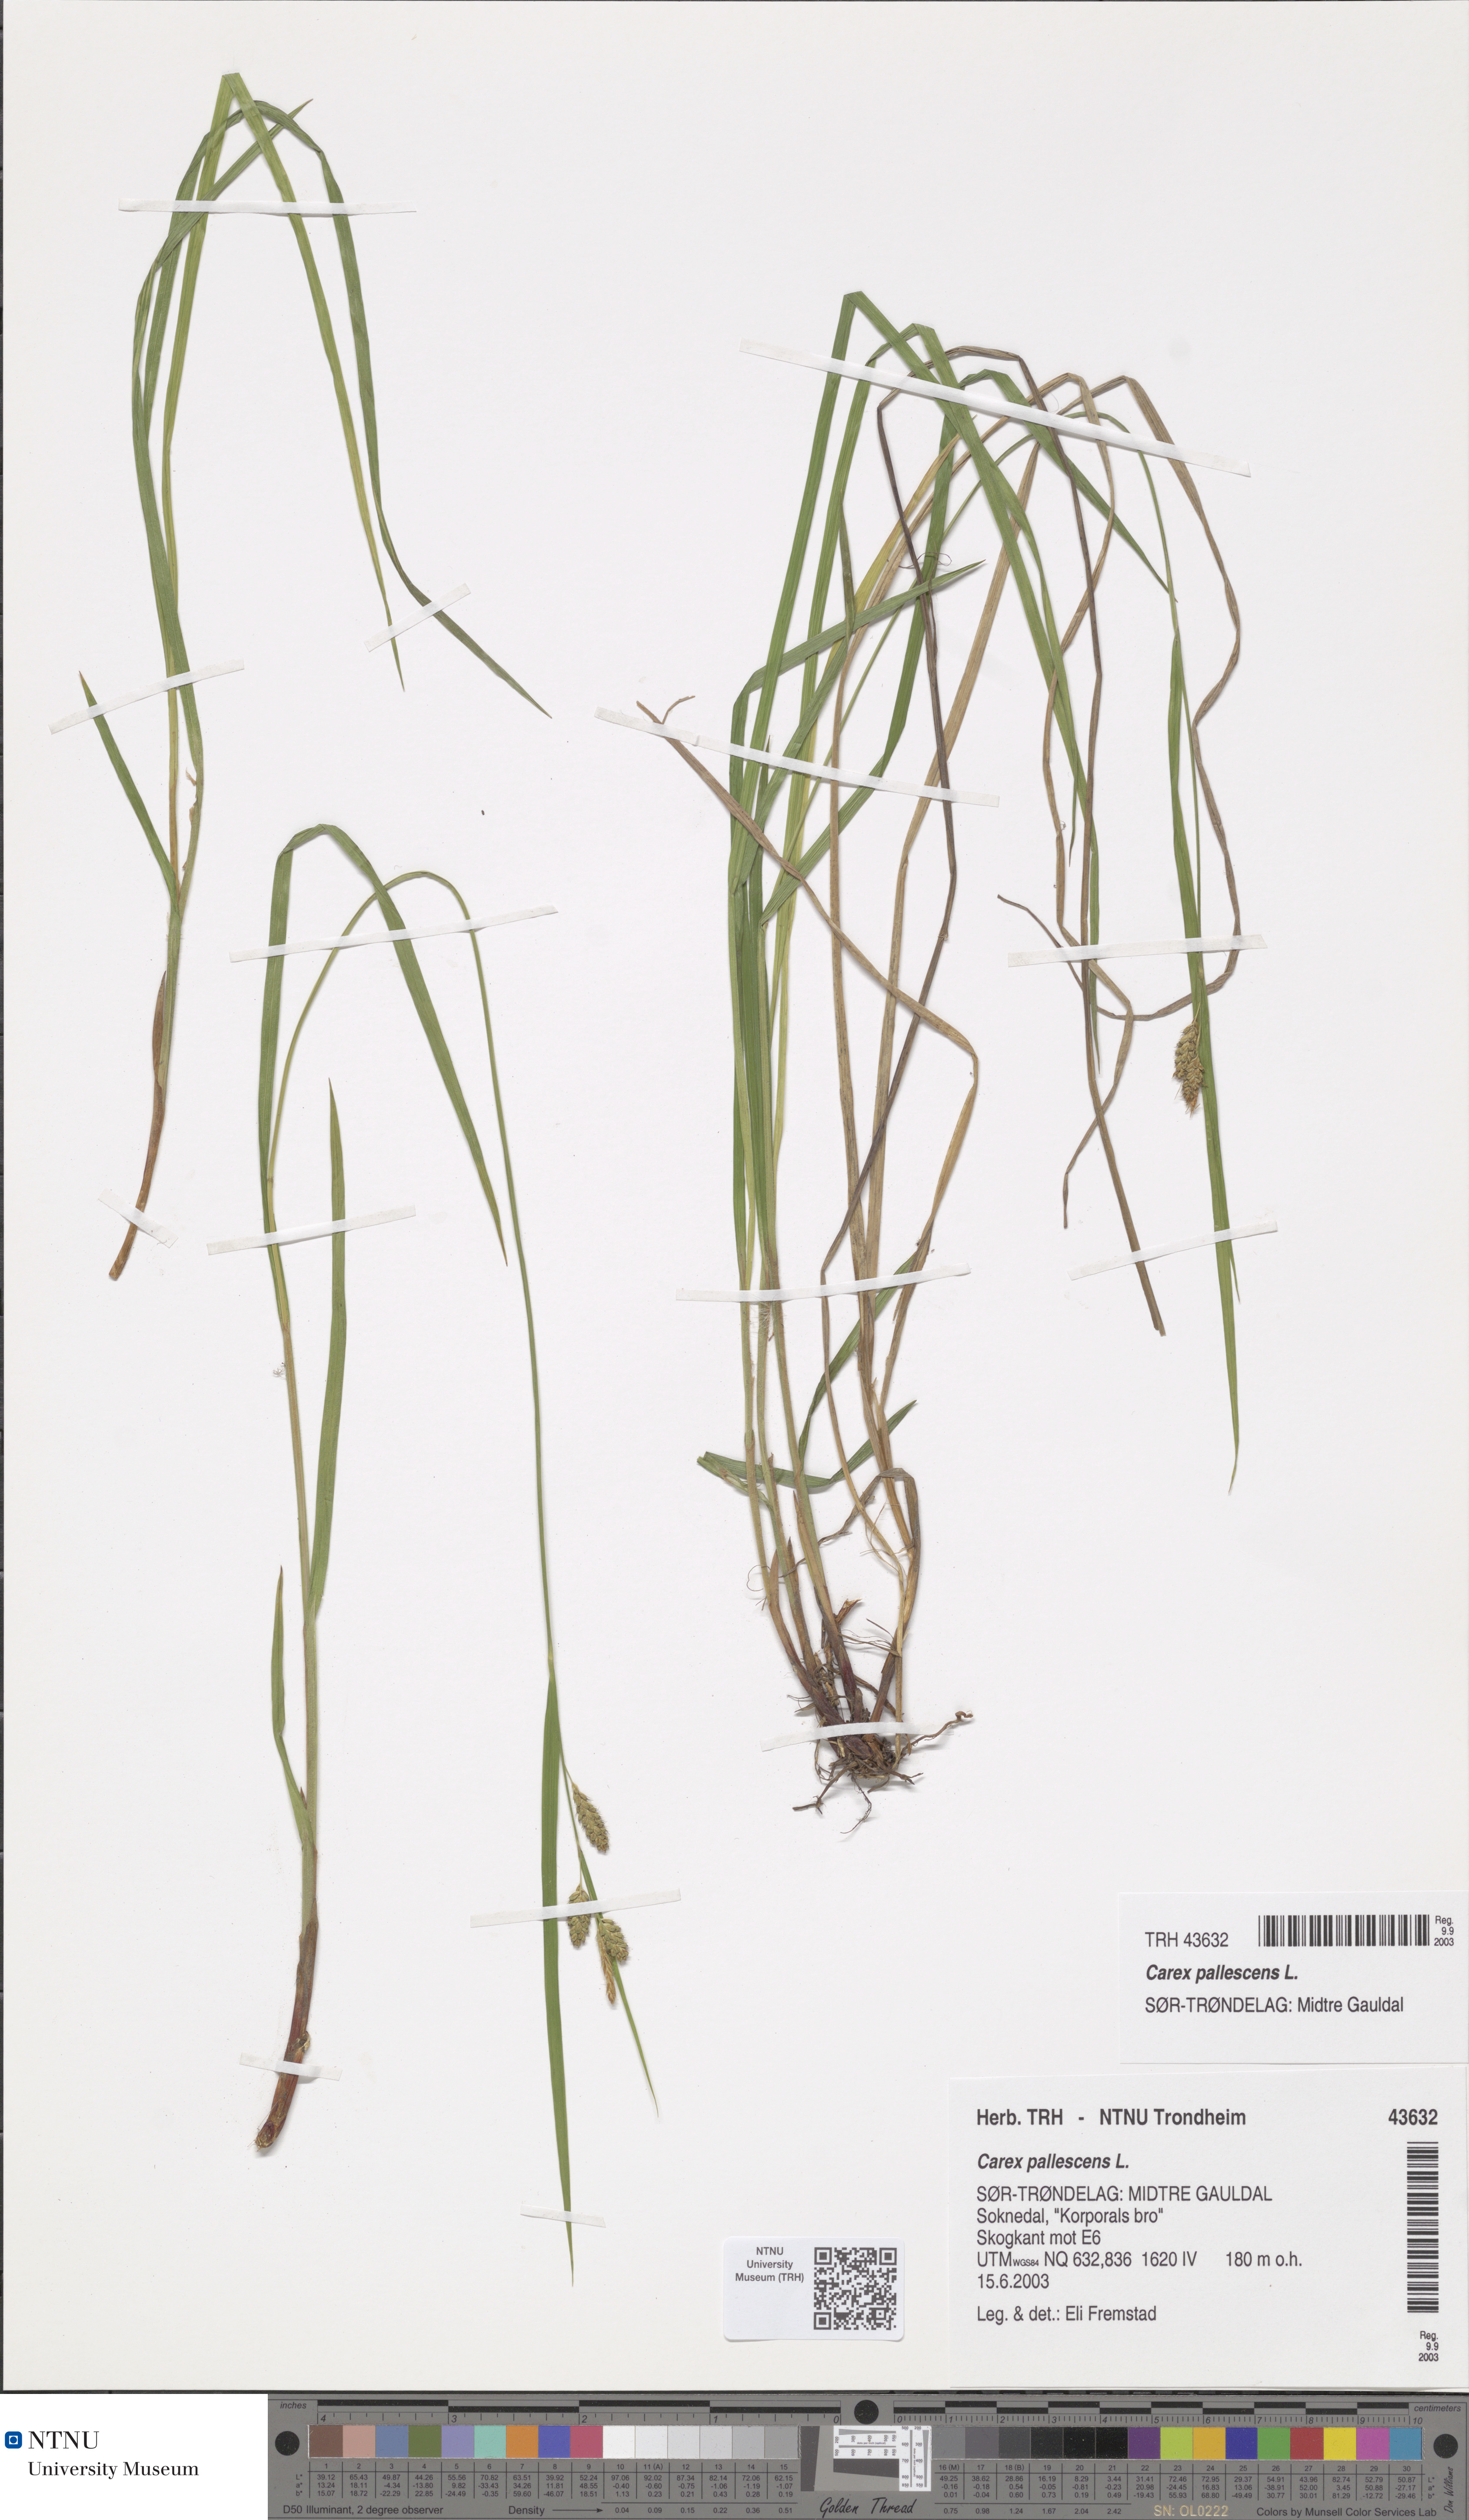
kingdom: Plantae
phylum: Tracheophyta
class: Liliopsida
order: Poales
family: Cyperaceae
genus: Carex
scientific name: Carex pallescens
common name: Pale sedge
